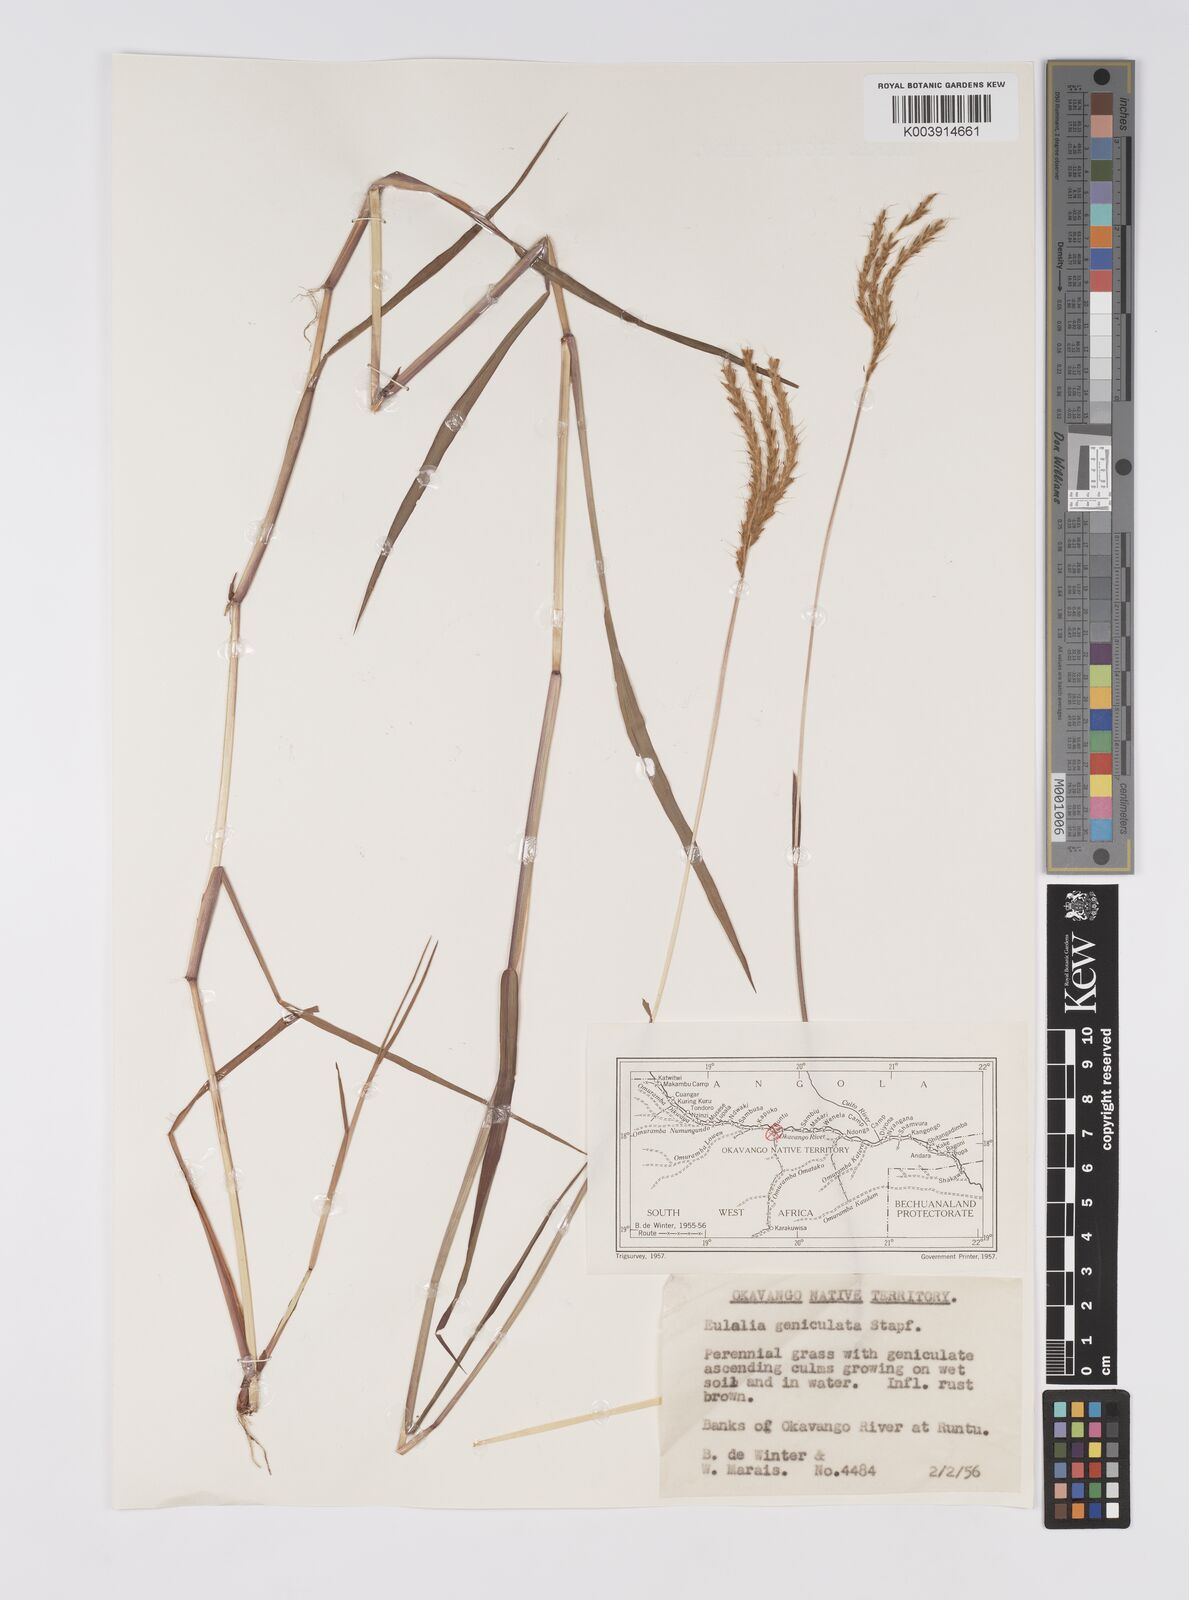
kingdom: Plantae
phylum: Tracheophyta
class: Liliopsida
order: Poales
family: Poaceae
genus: Eulalia
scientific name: Eulalia aurea
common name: Silky browntop
